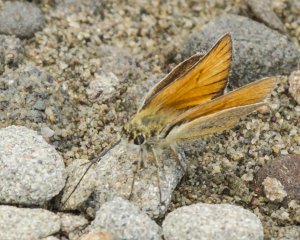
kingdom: Animalia
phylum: Arthropoda
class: Insecta
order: Lepidoptera
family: Hesperiidae
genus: Thymelicus
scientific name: Thymelicus lineola
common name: European Skipper
